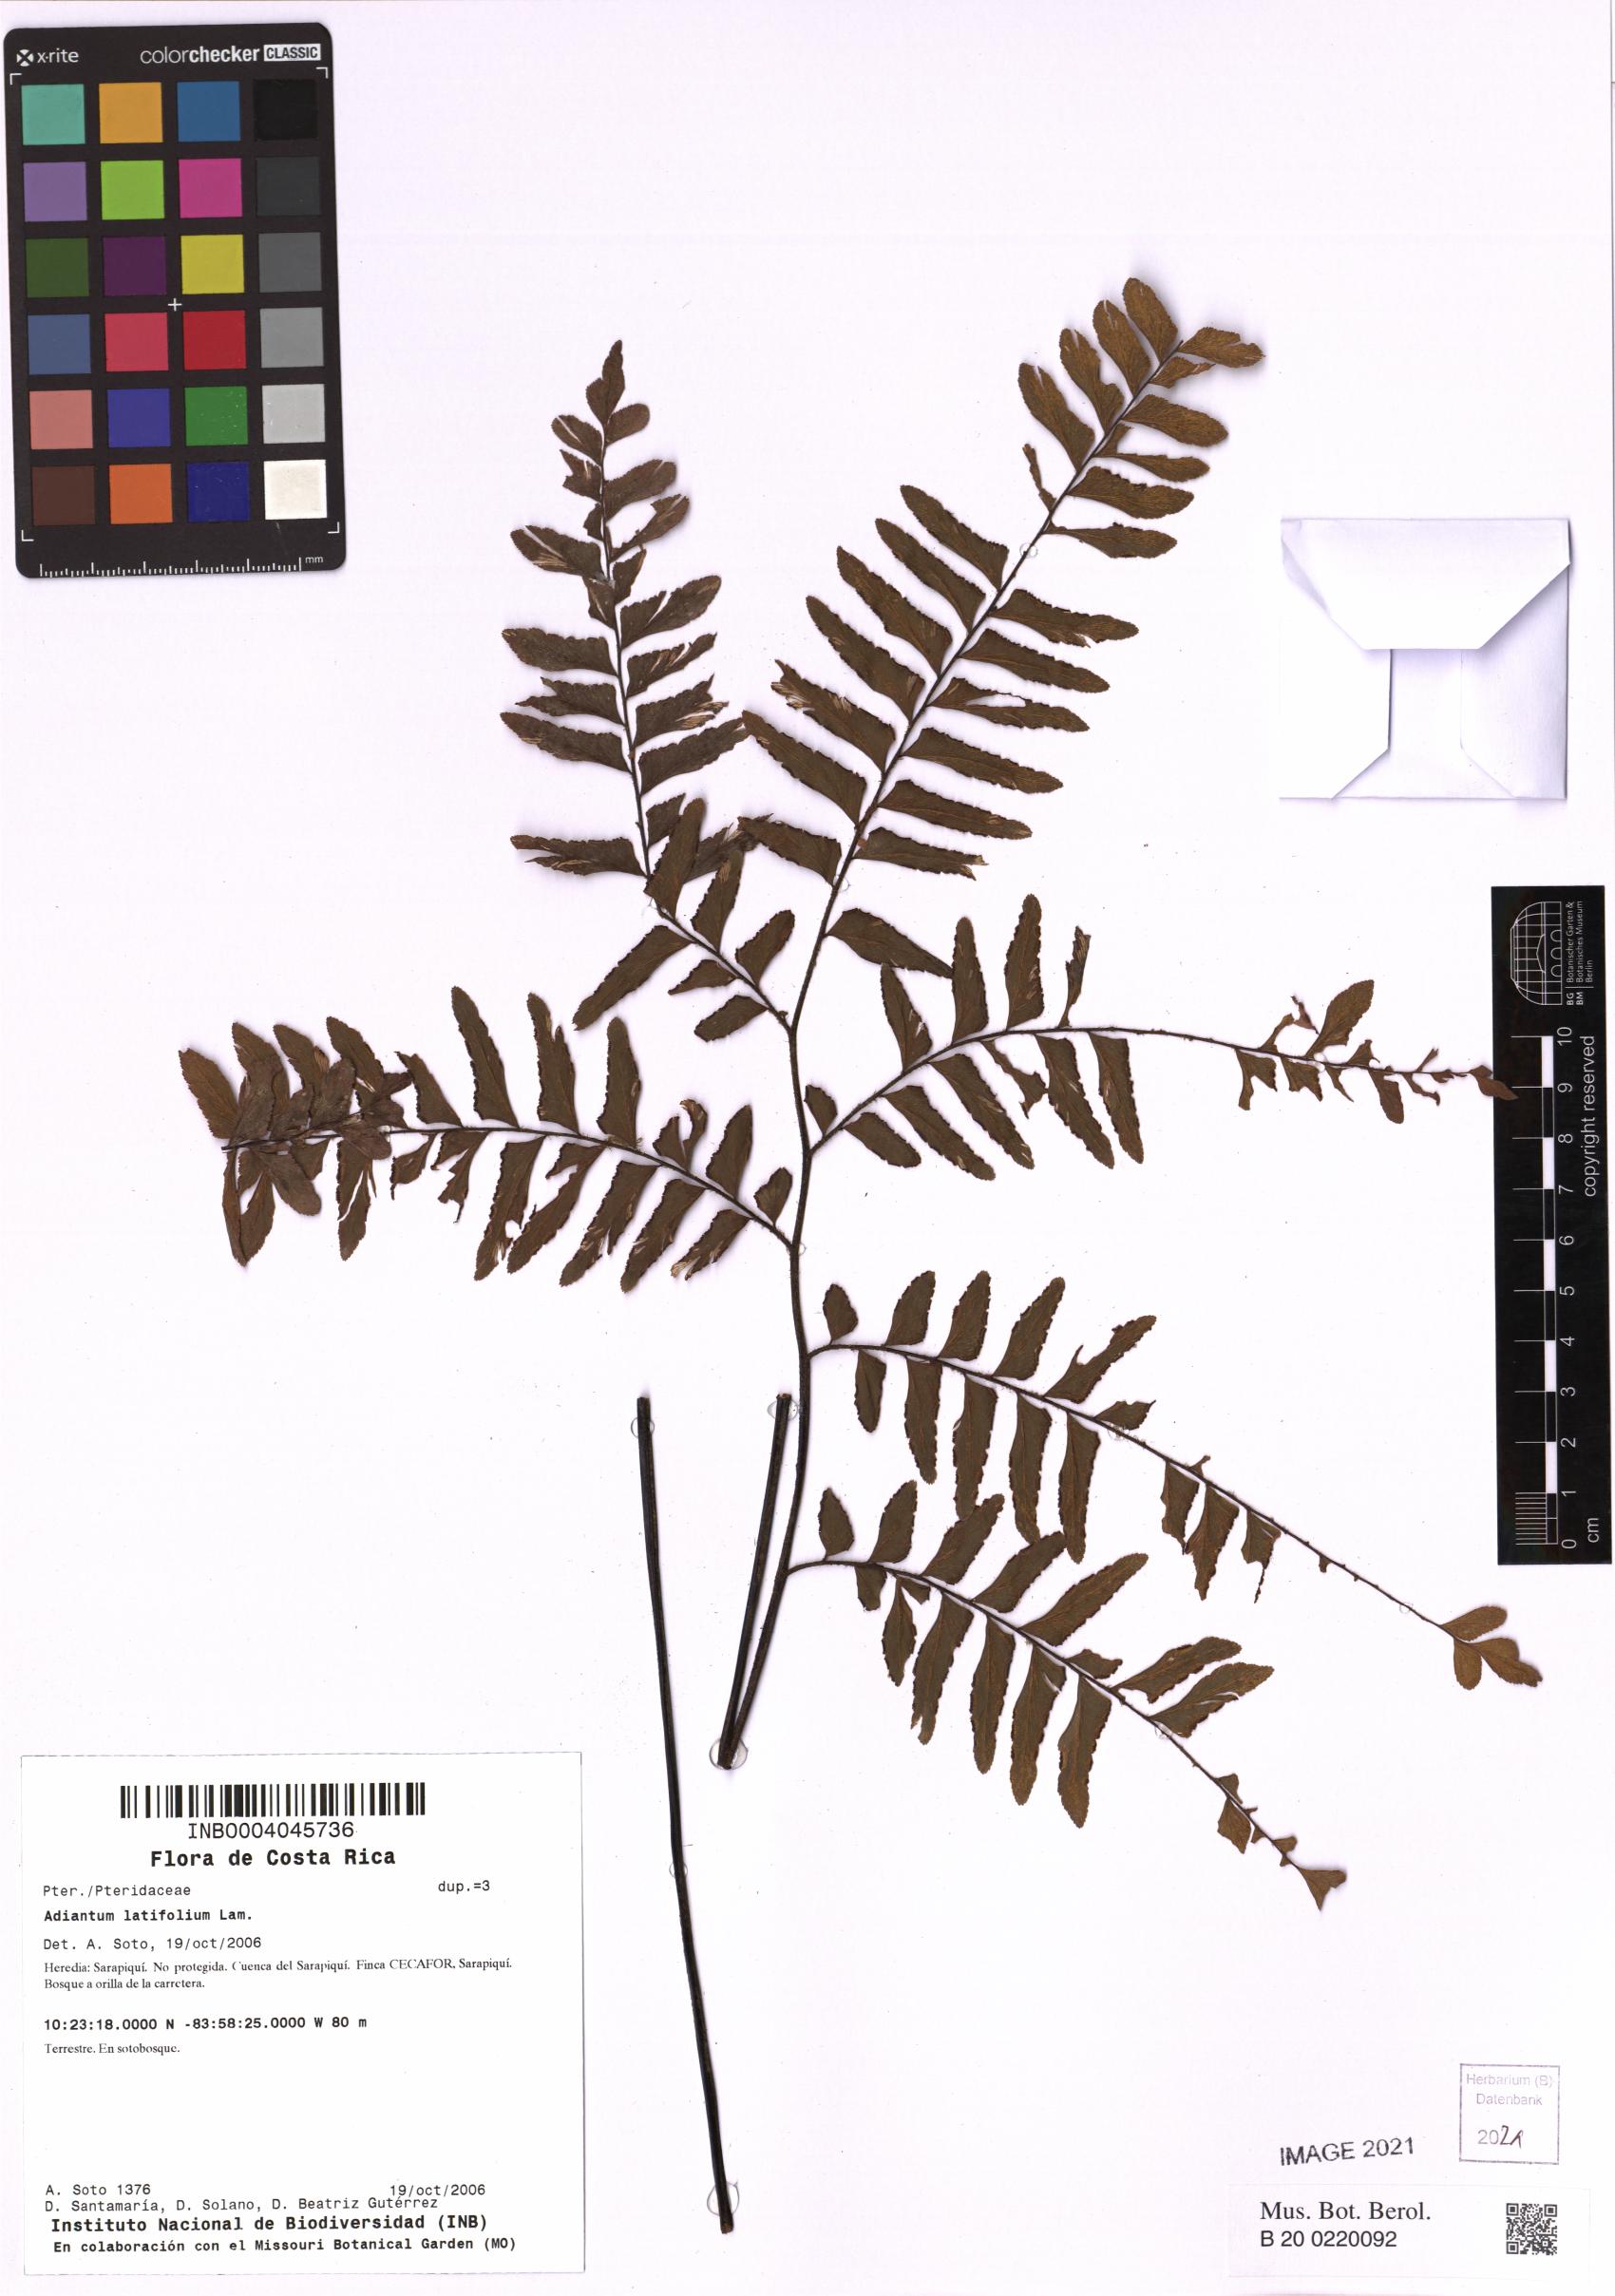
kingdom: Plantae
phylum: Tracheophyta
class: Polypodiopsida
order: Polypodiales
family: Pteridaceae
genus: Adiantum
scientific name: Adiantum latifolium
